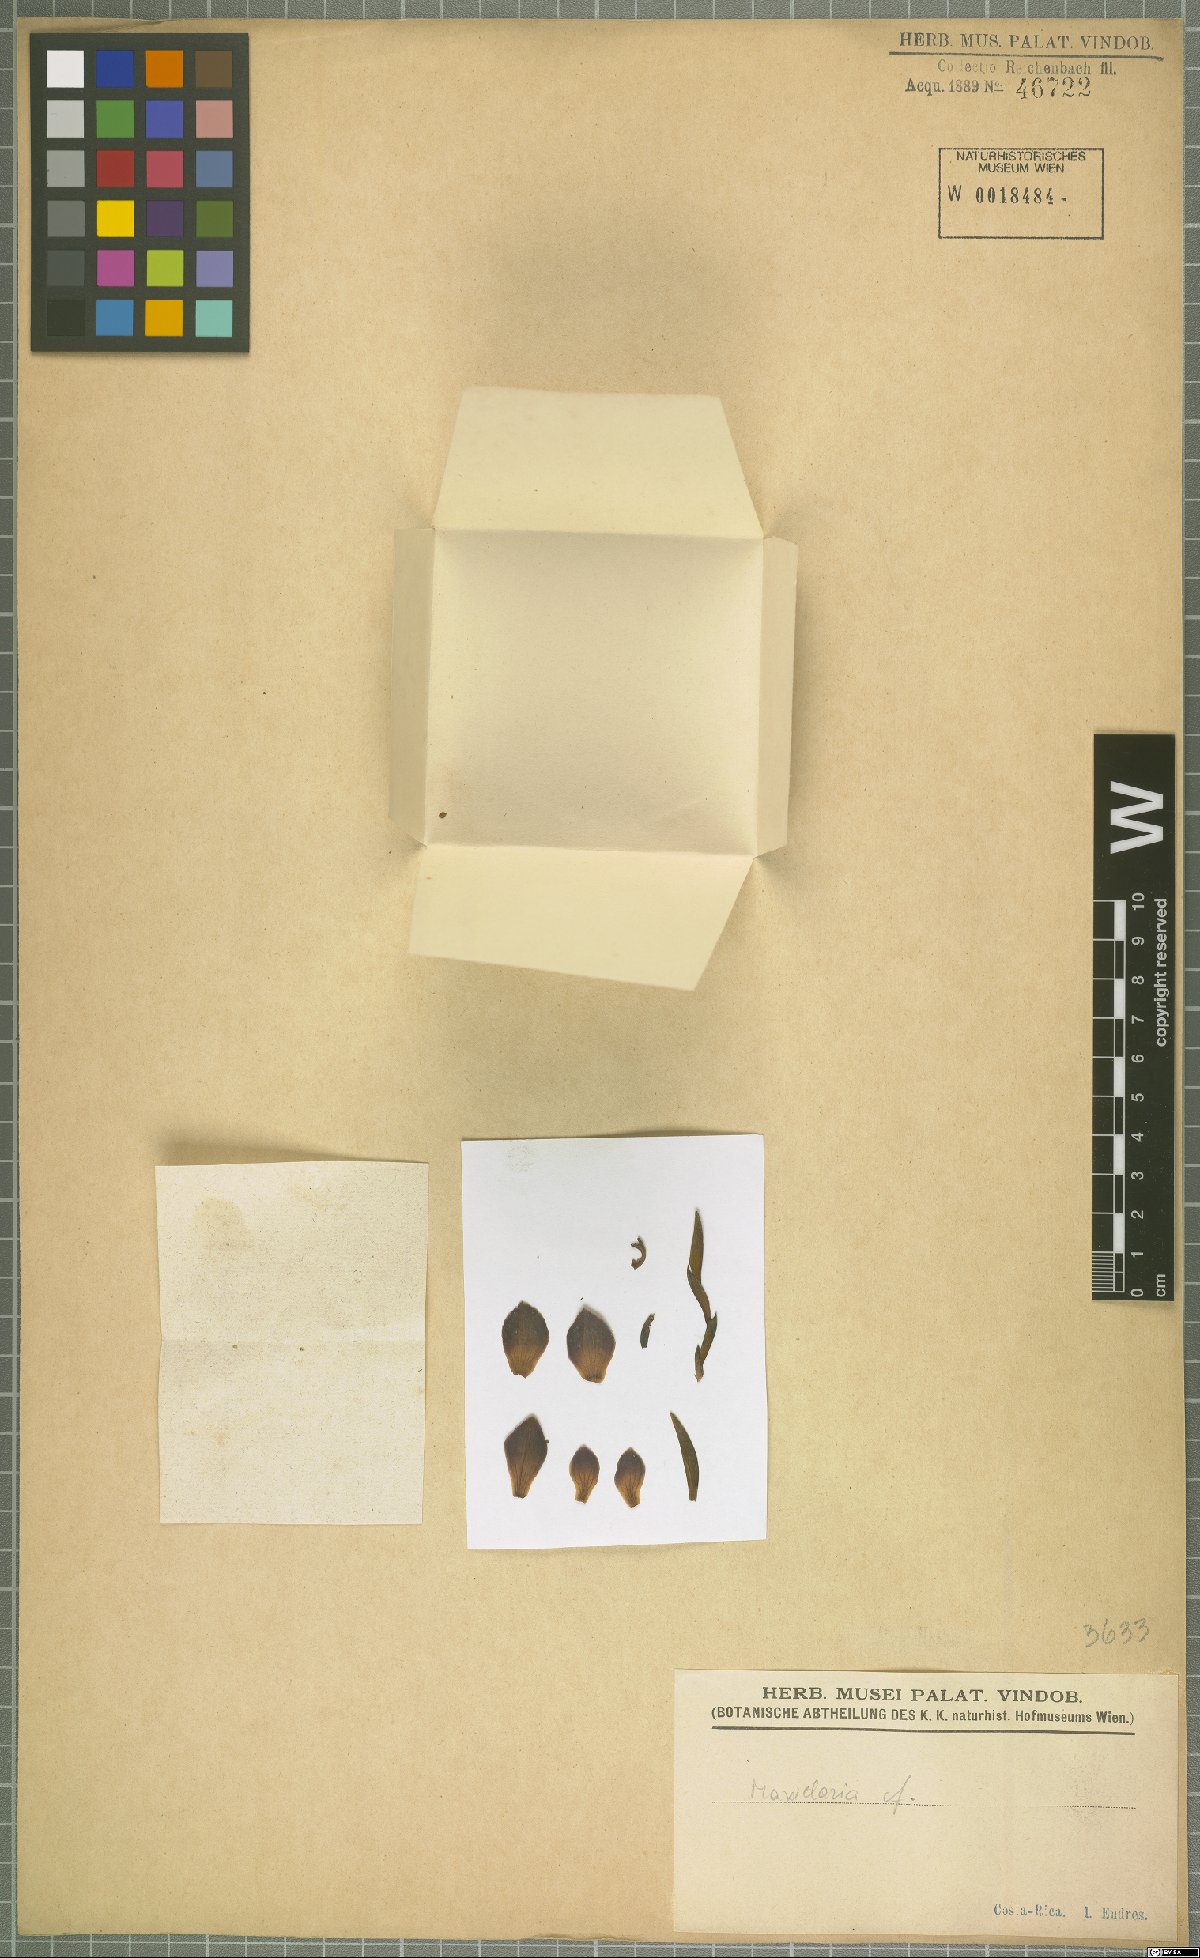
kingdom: Plantae
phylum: Tracheophyta
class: Liliopsida
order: Asparagales
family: Orchidaceae
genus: Maxillaria
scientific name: Maxillaria
